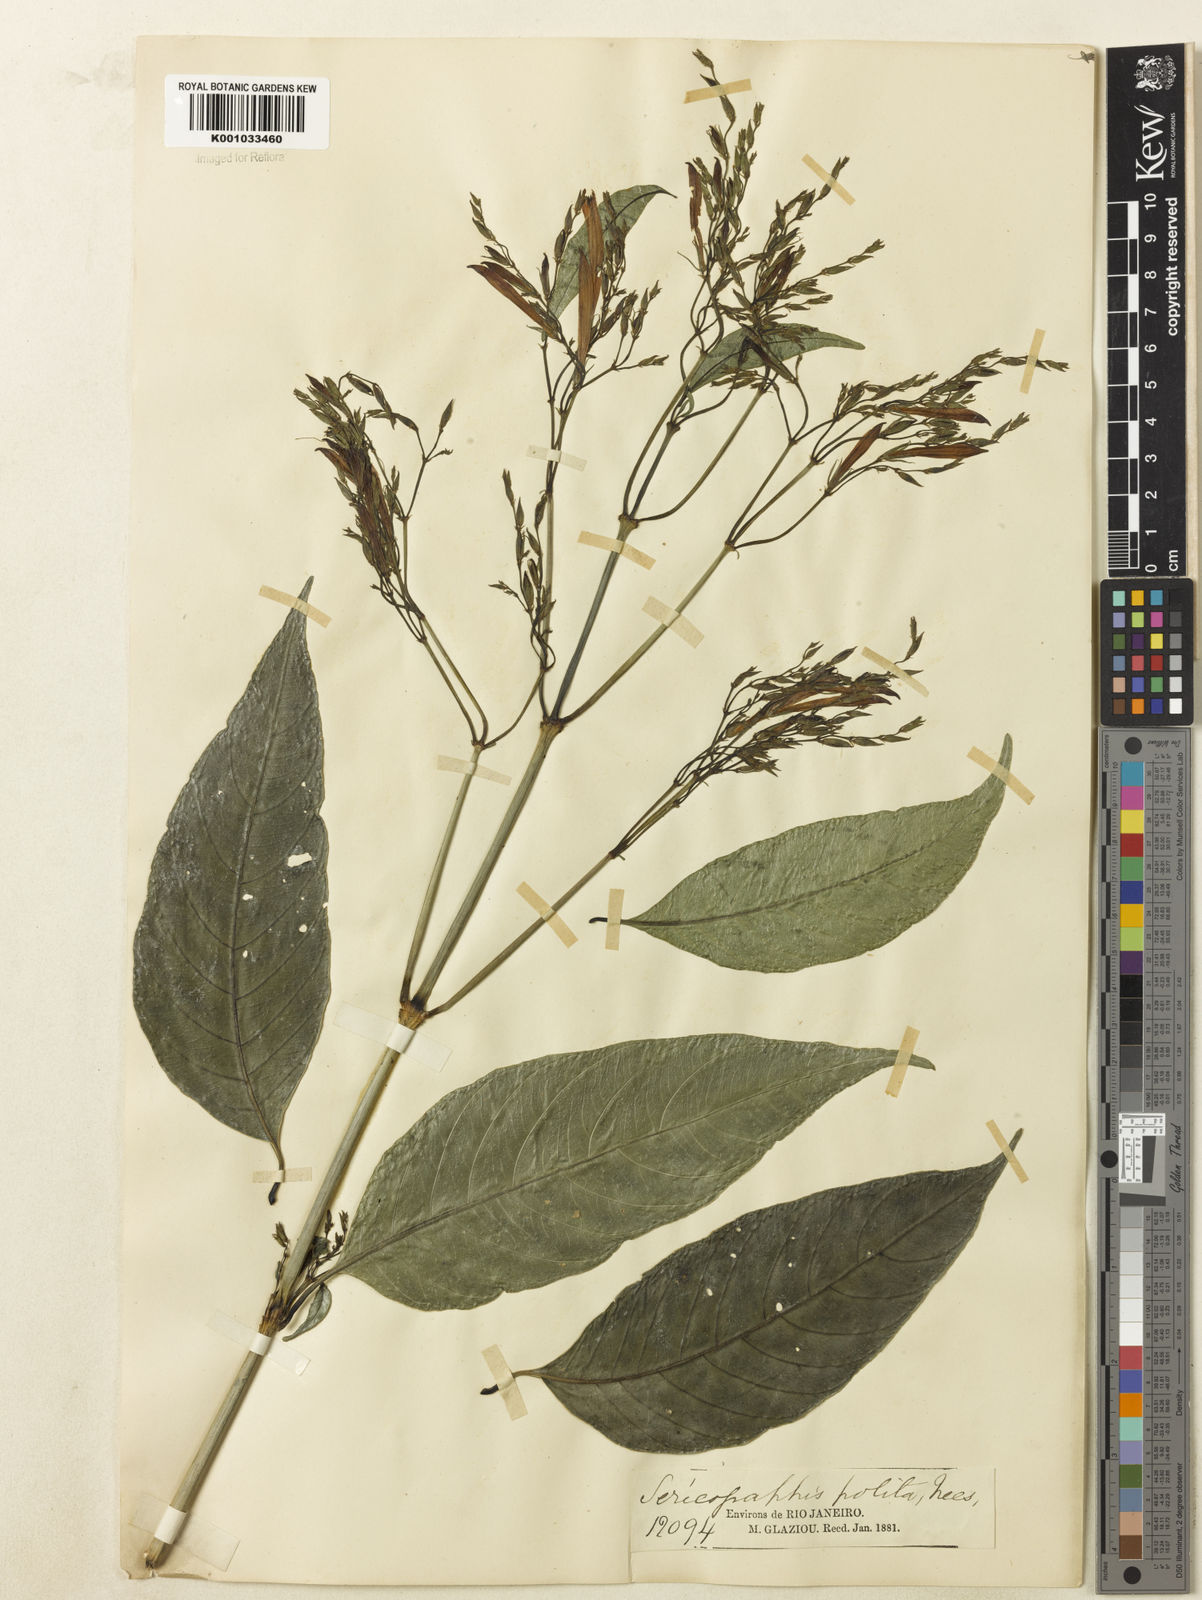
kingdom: Plantae
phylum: Tracheophyta
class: Magnoliopsida
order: Lamiales
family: Acanthaceae
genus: Justicia
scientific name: Justicia polita
